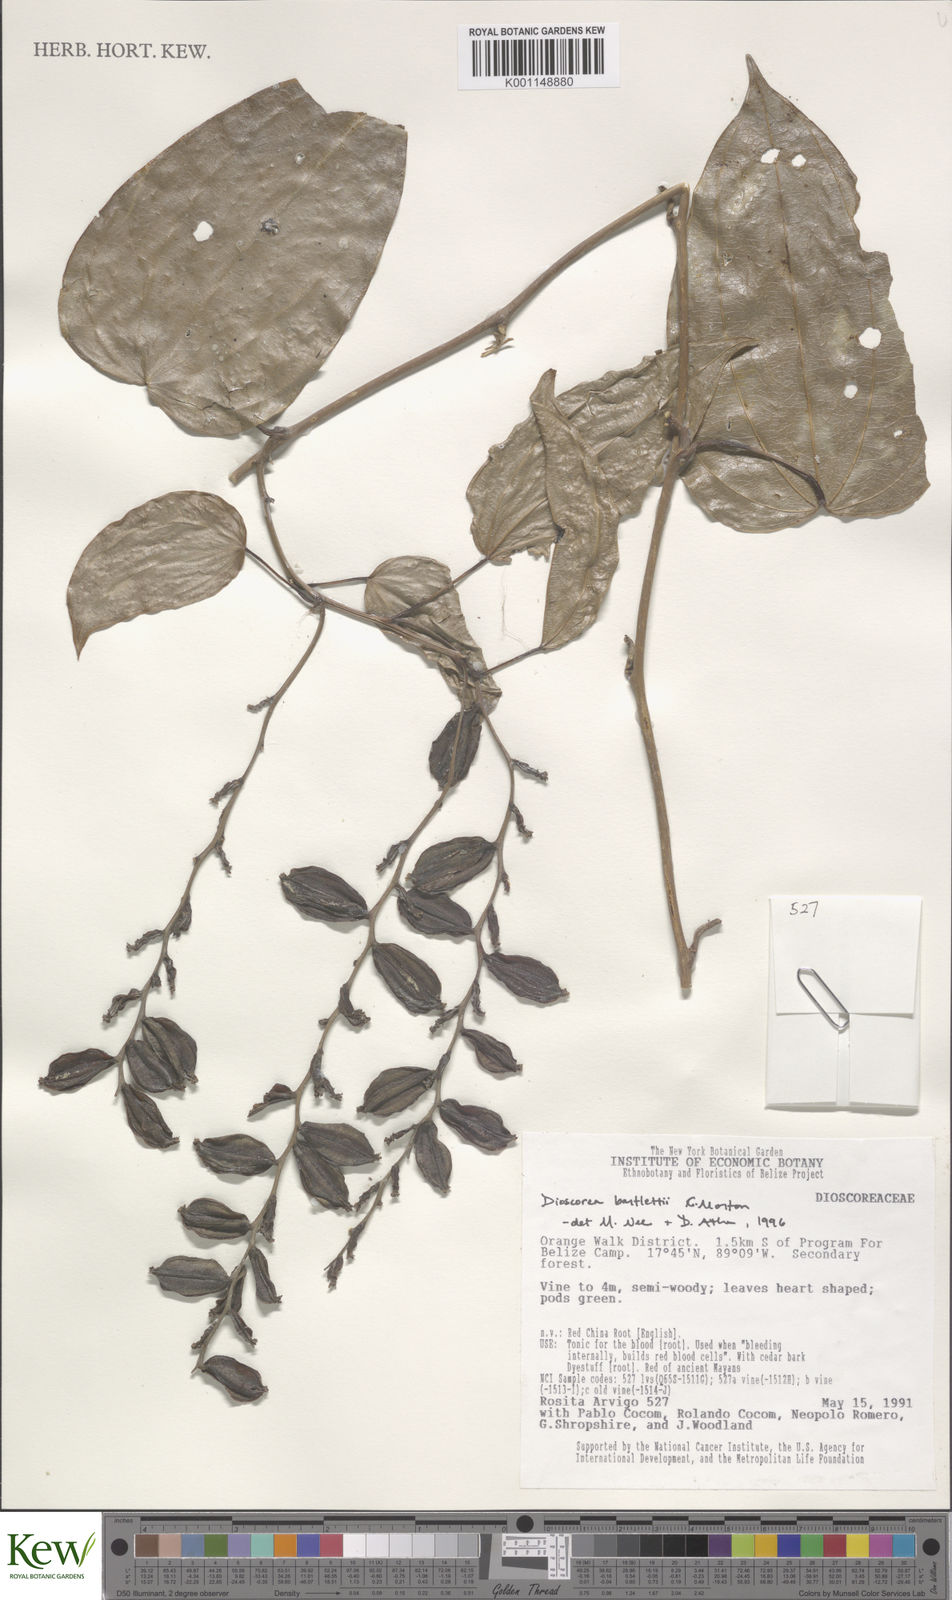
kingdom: Plantae
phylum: Tracheophyta
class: Liliopsida
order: Dioscoreales
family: Dioscoreaceae
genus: Dioscorea
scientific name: Dioscorea bartlettii
